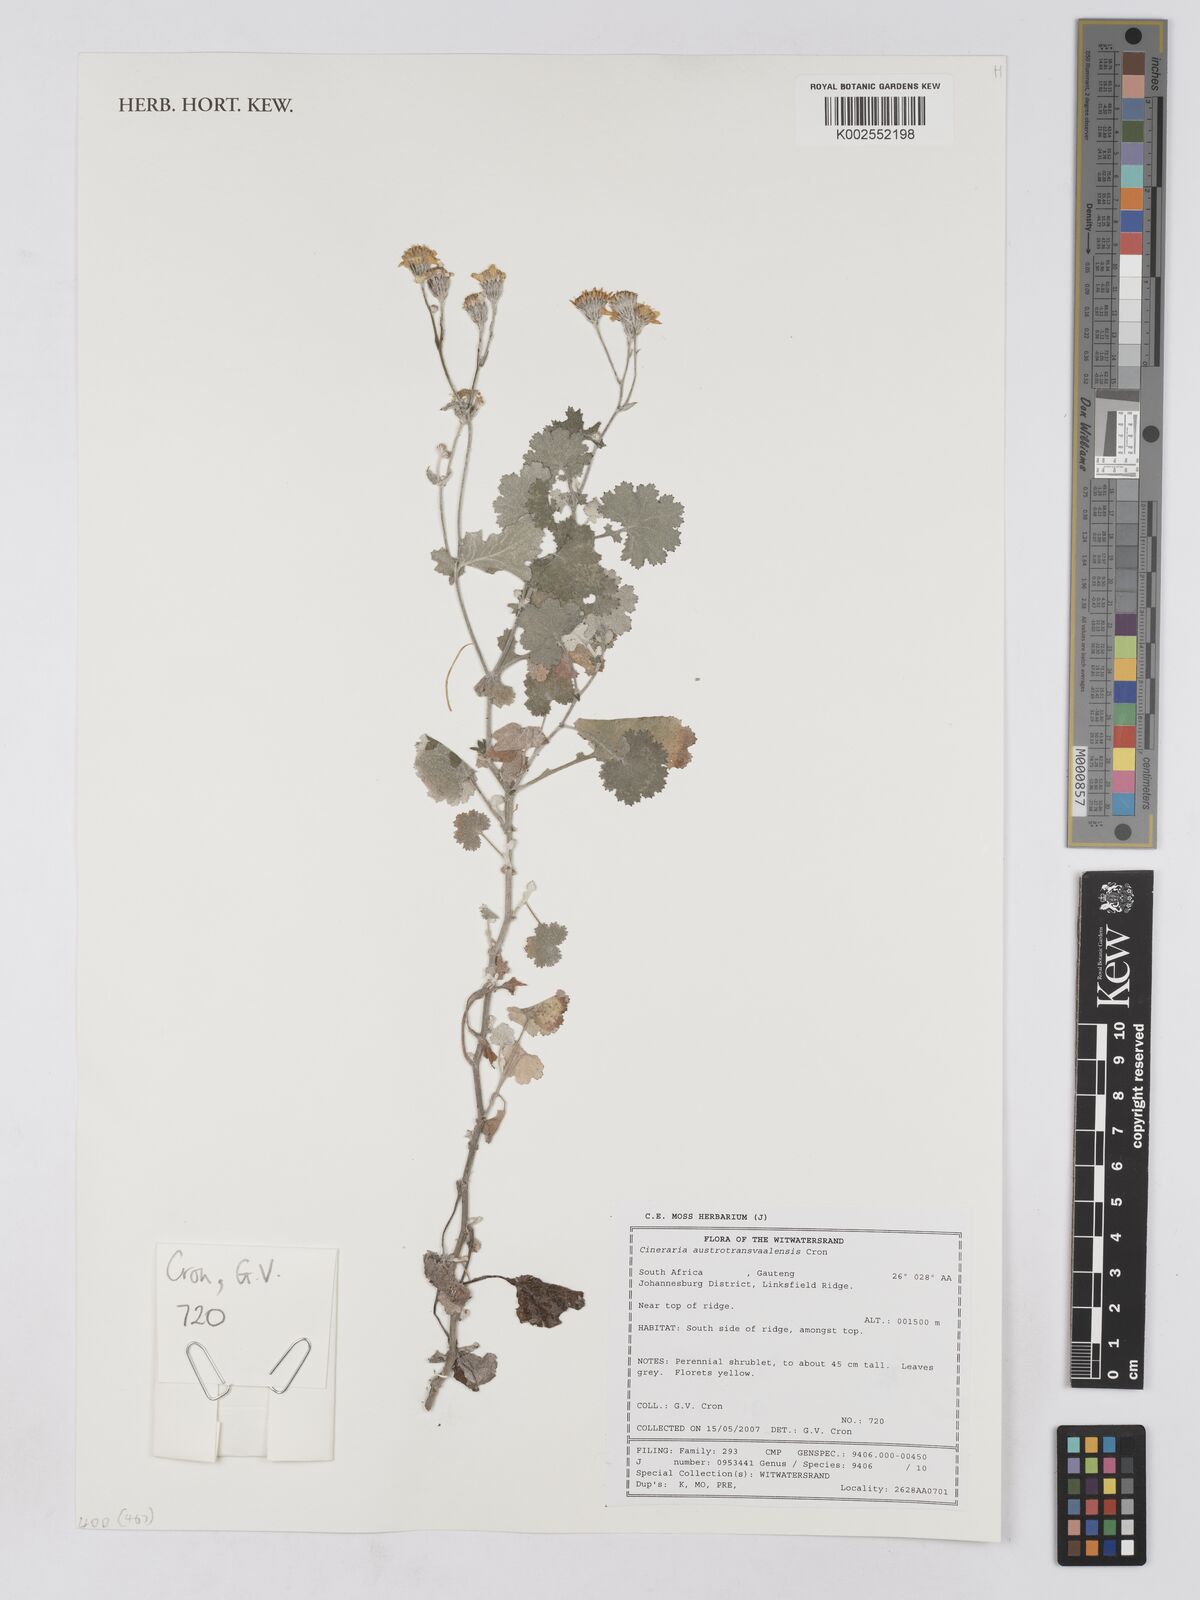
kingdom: Plantae
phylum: Tracheophyta
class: Magnoliopsida
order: Asterales
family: Asteraceae
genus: Cineraria
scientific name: Cineraria austrotransvaalensis
